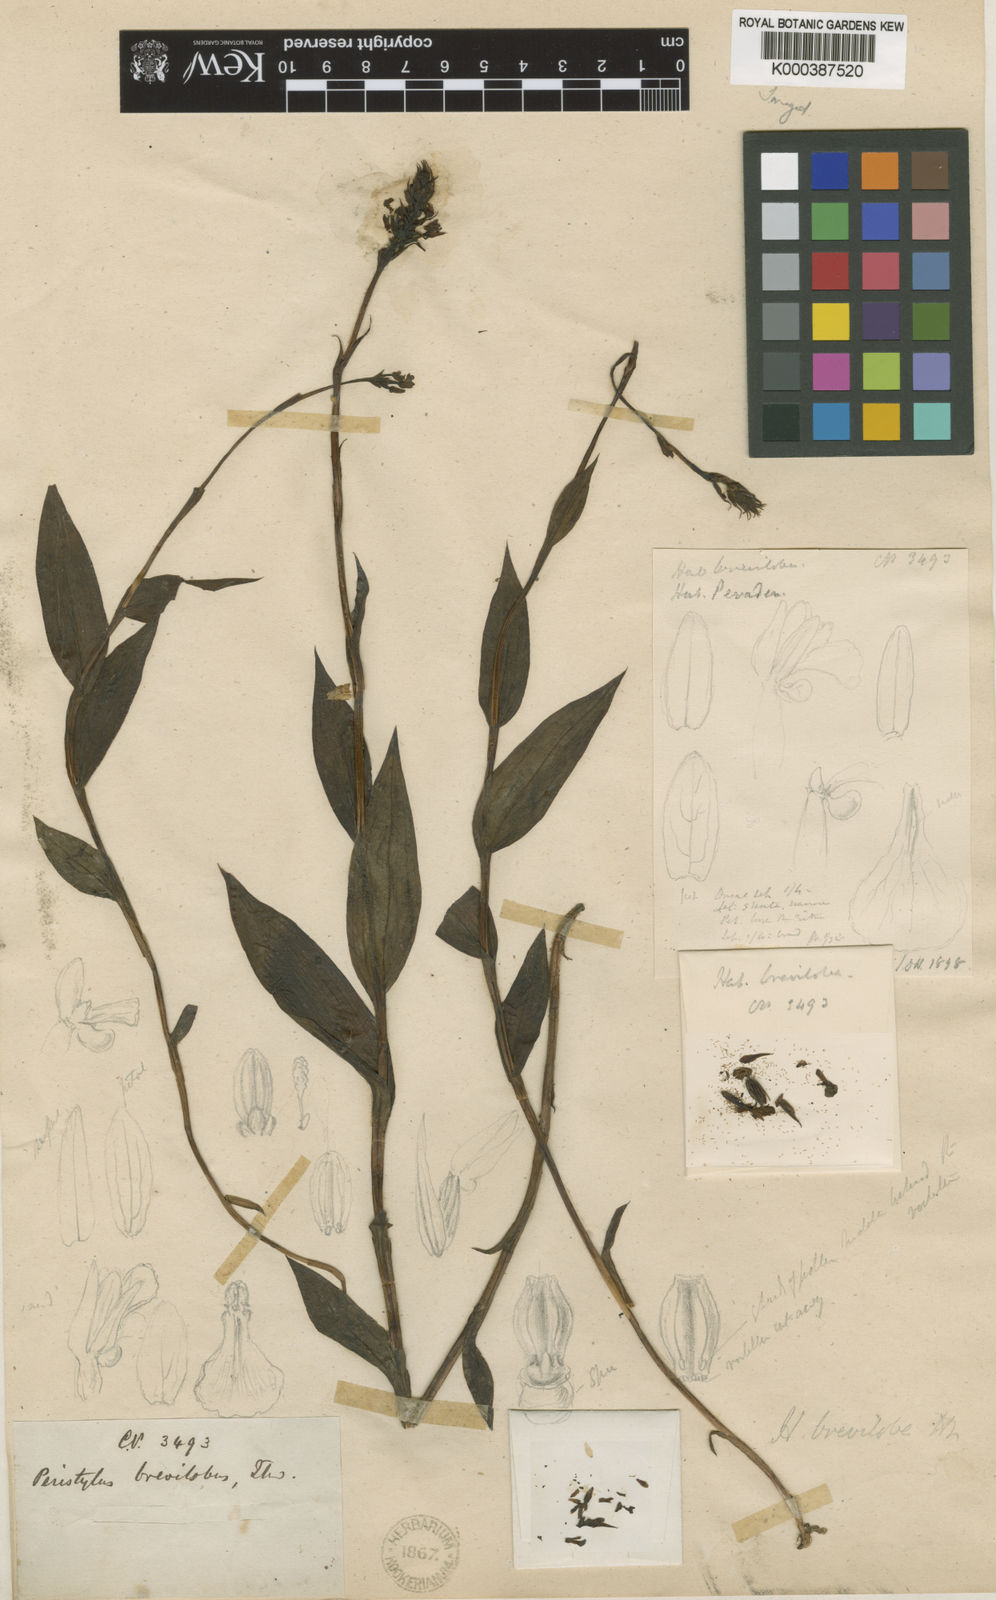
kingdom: Plantae
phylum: Tracheophyta
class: Liliopsida
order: Asparagales
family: Orchidaceae
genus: Peristylus
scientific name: Peristylus brevilobus
